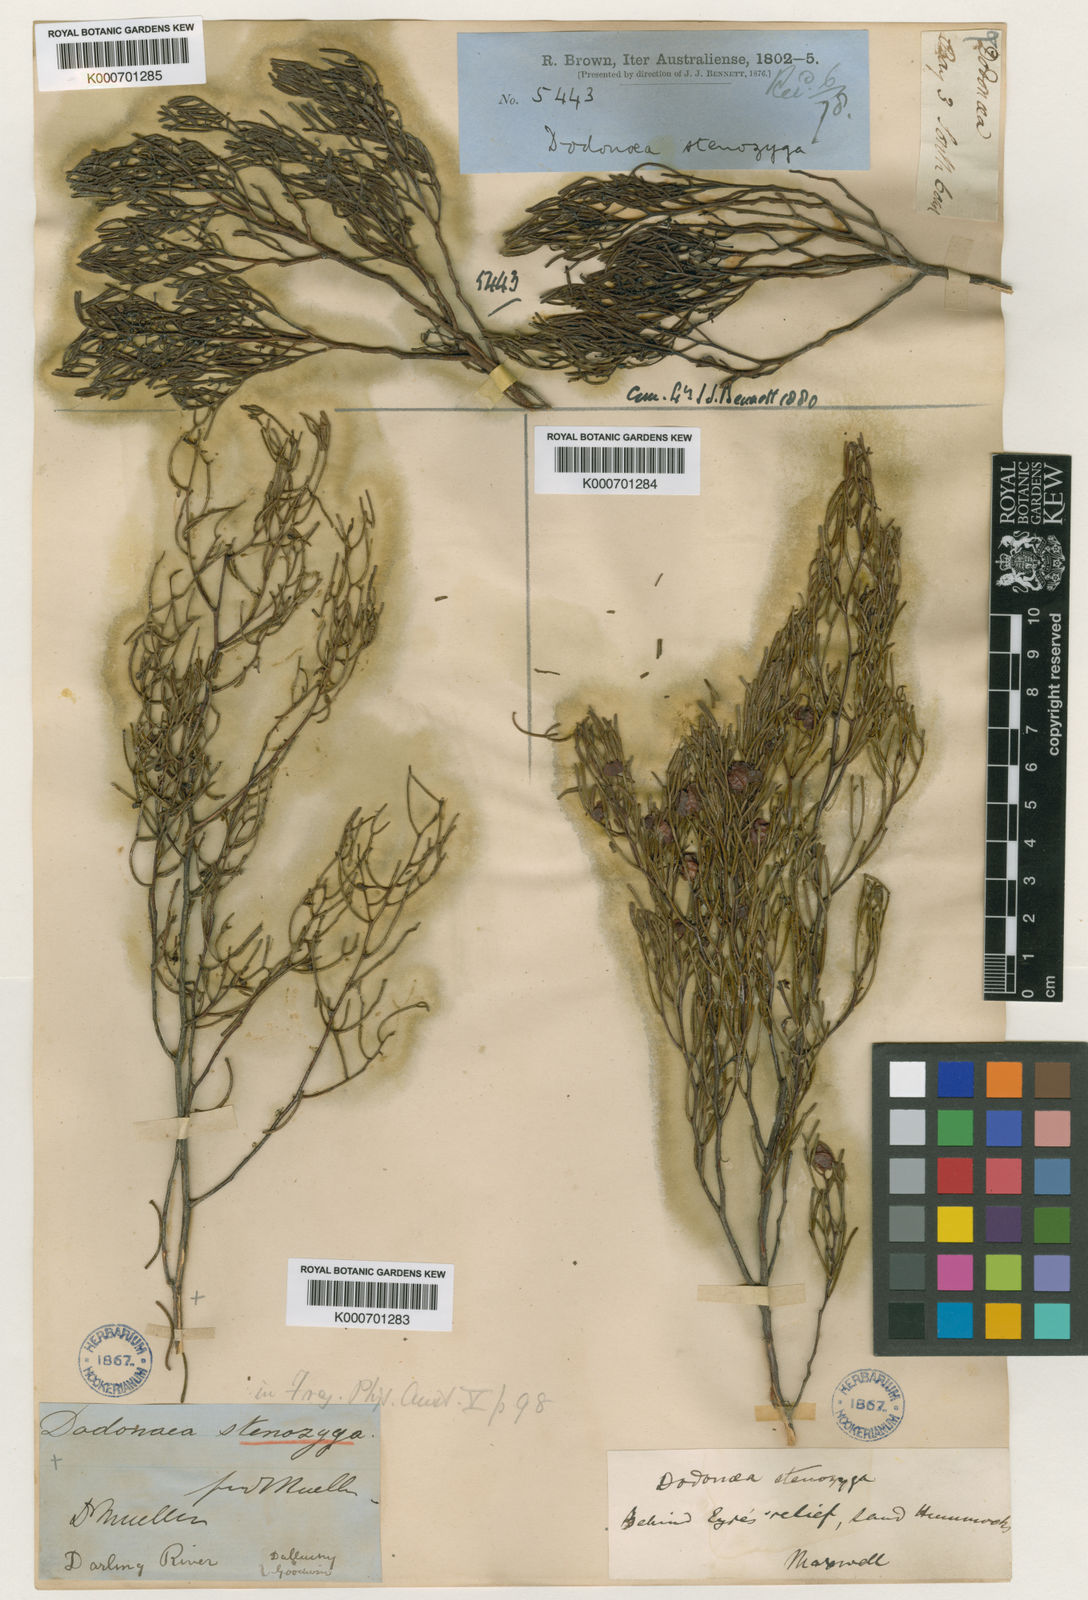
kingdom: Plantae
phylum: Tracheophyta
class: Magnoliopsida
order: Sapindales
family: Sapindaceae
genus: Dodonaea
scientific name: Dodonaea stenozyga
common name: Desert hopbush
